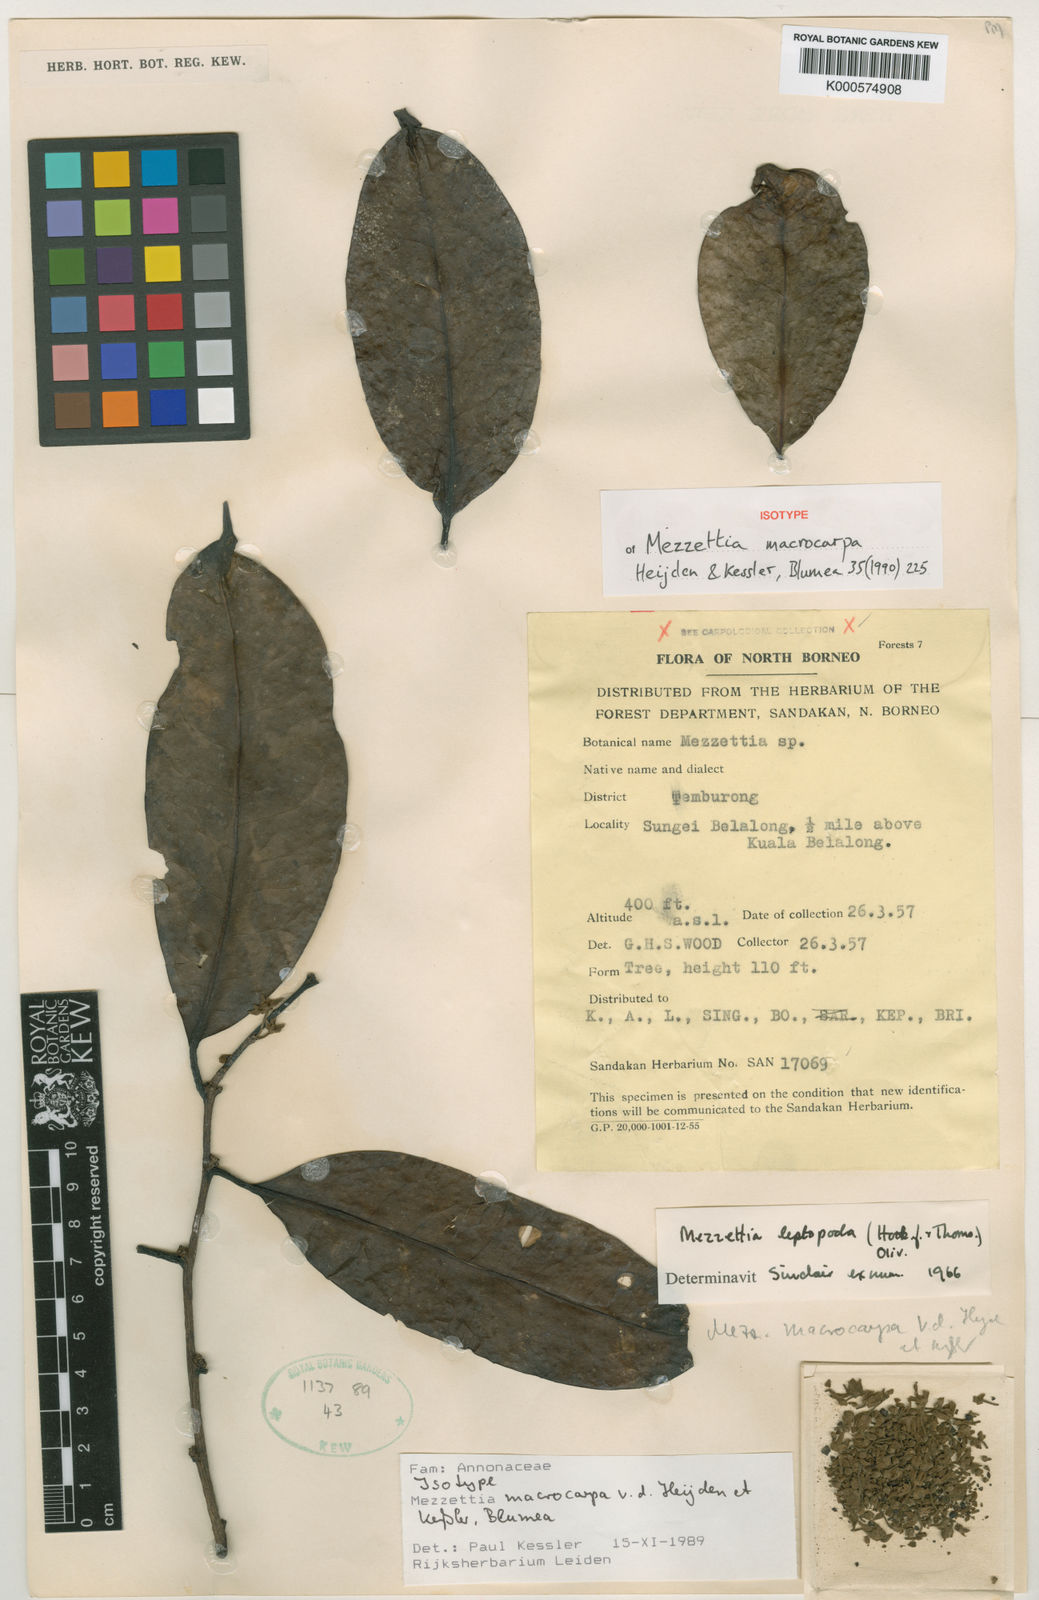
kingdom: Plantae
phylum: Tracheophyta
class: Magnoliopsida
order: Magnoliales
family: Annonaceae
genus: Mezzettia
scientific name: Mezzettia
